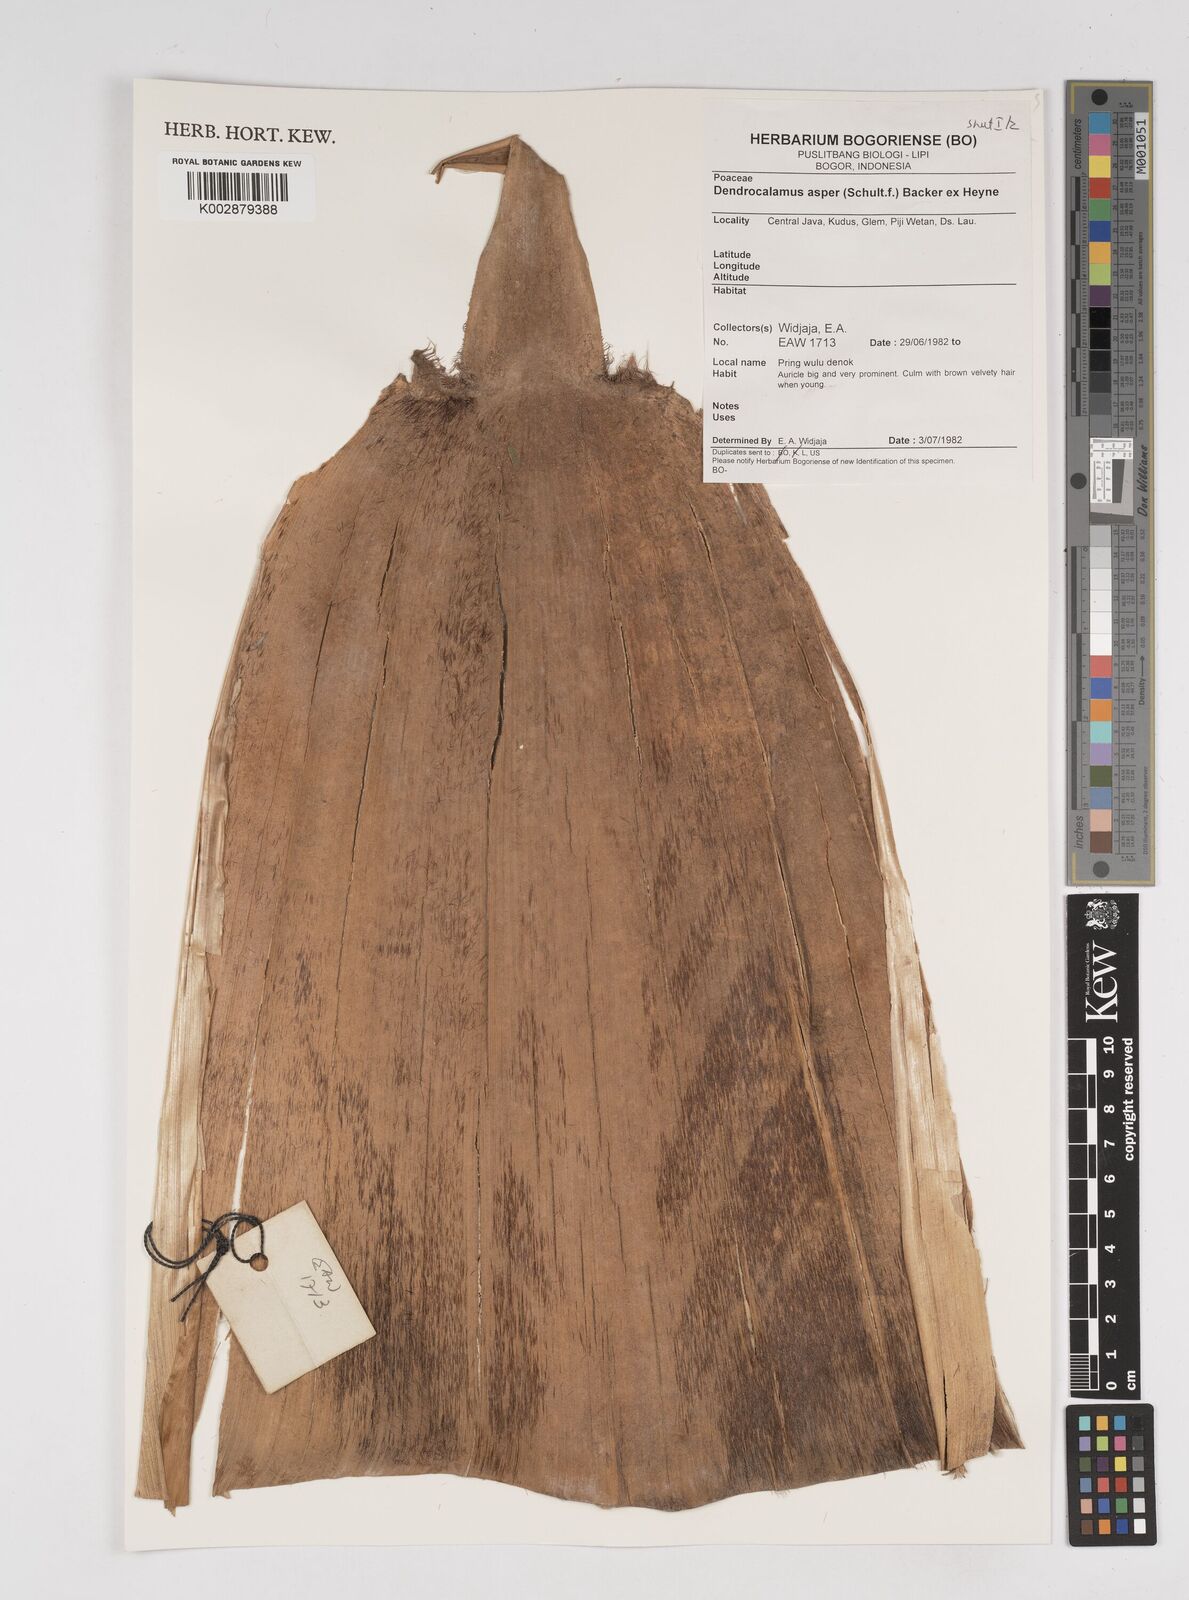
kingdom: Plantae
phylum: Tracheophyta
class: Liliopsida
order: Poales
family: Poaceae
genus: Dendrocalamus
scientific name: Dendrocalamus asper
